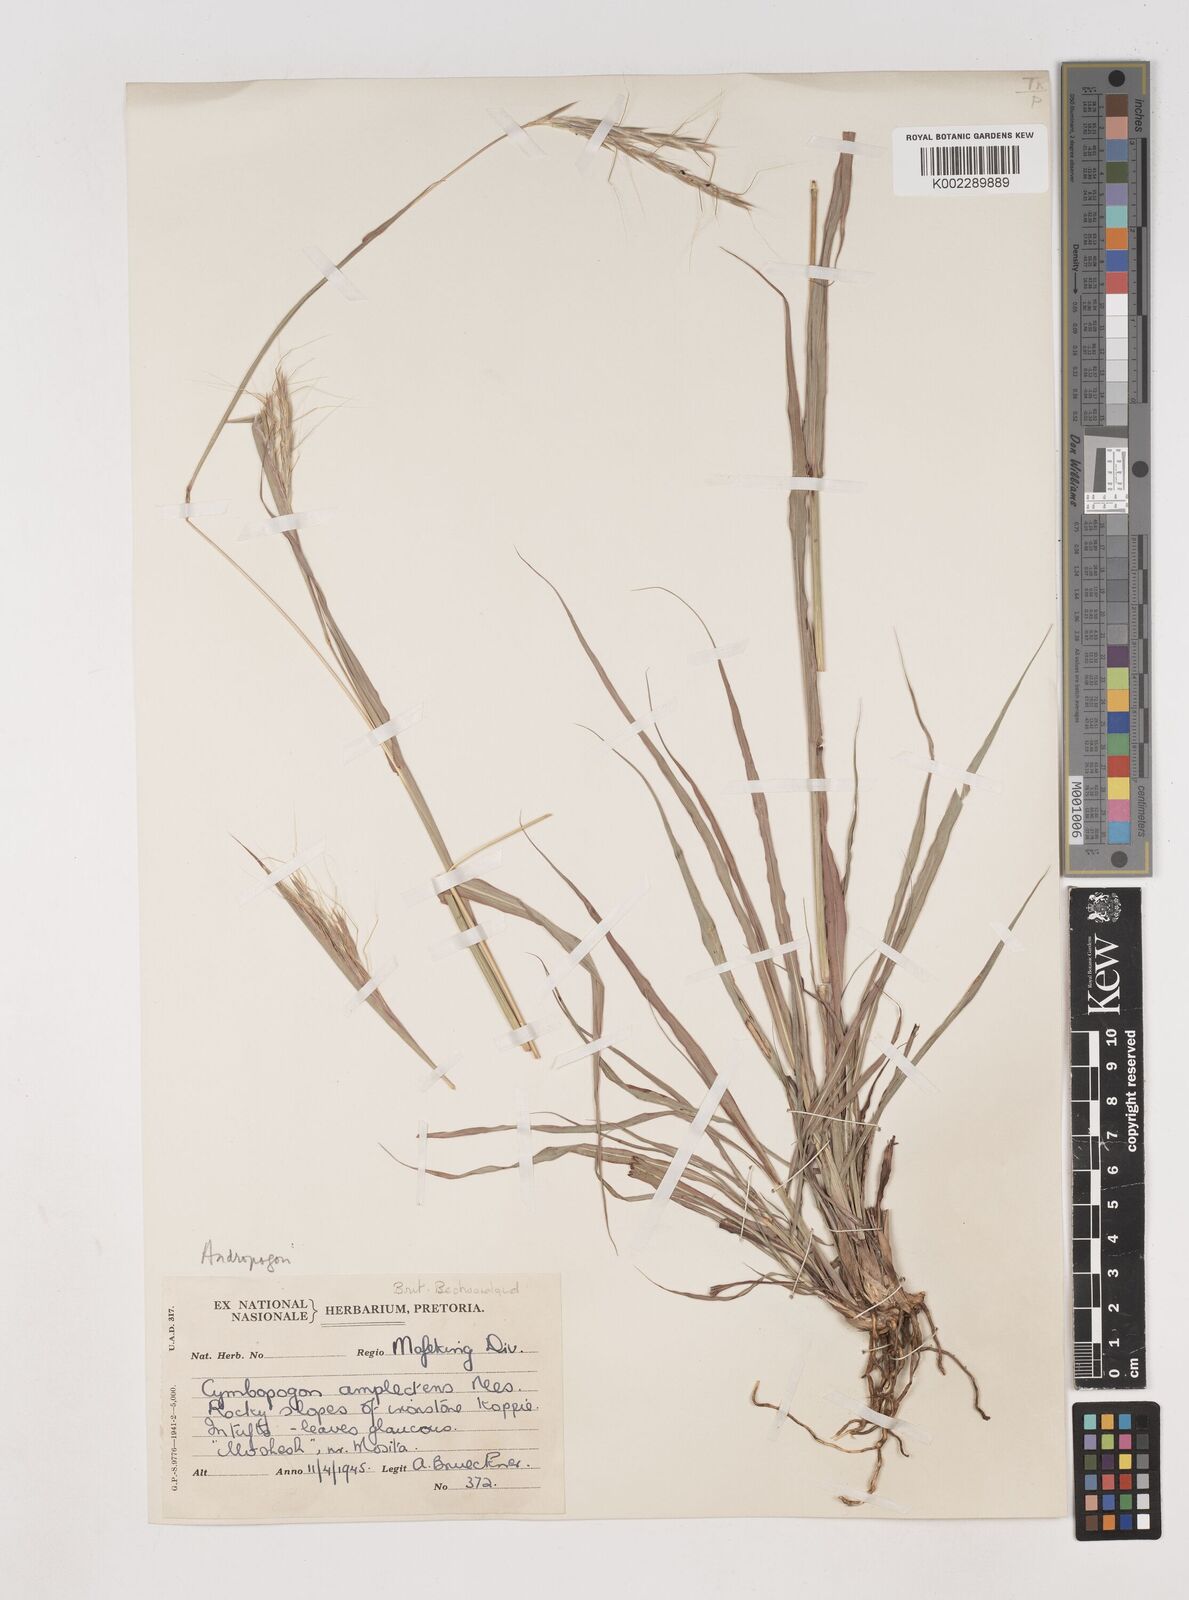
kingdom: Plantae
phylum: Tracheophyta
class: Liliopsida
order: Poales
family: Poaceae
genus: Diheteropogon
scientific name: Diheteropogon amplectens
